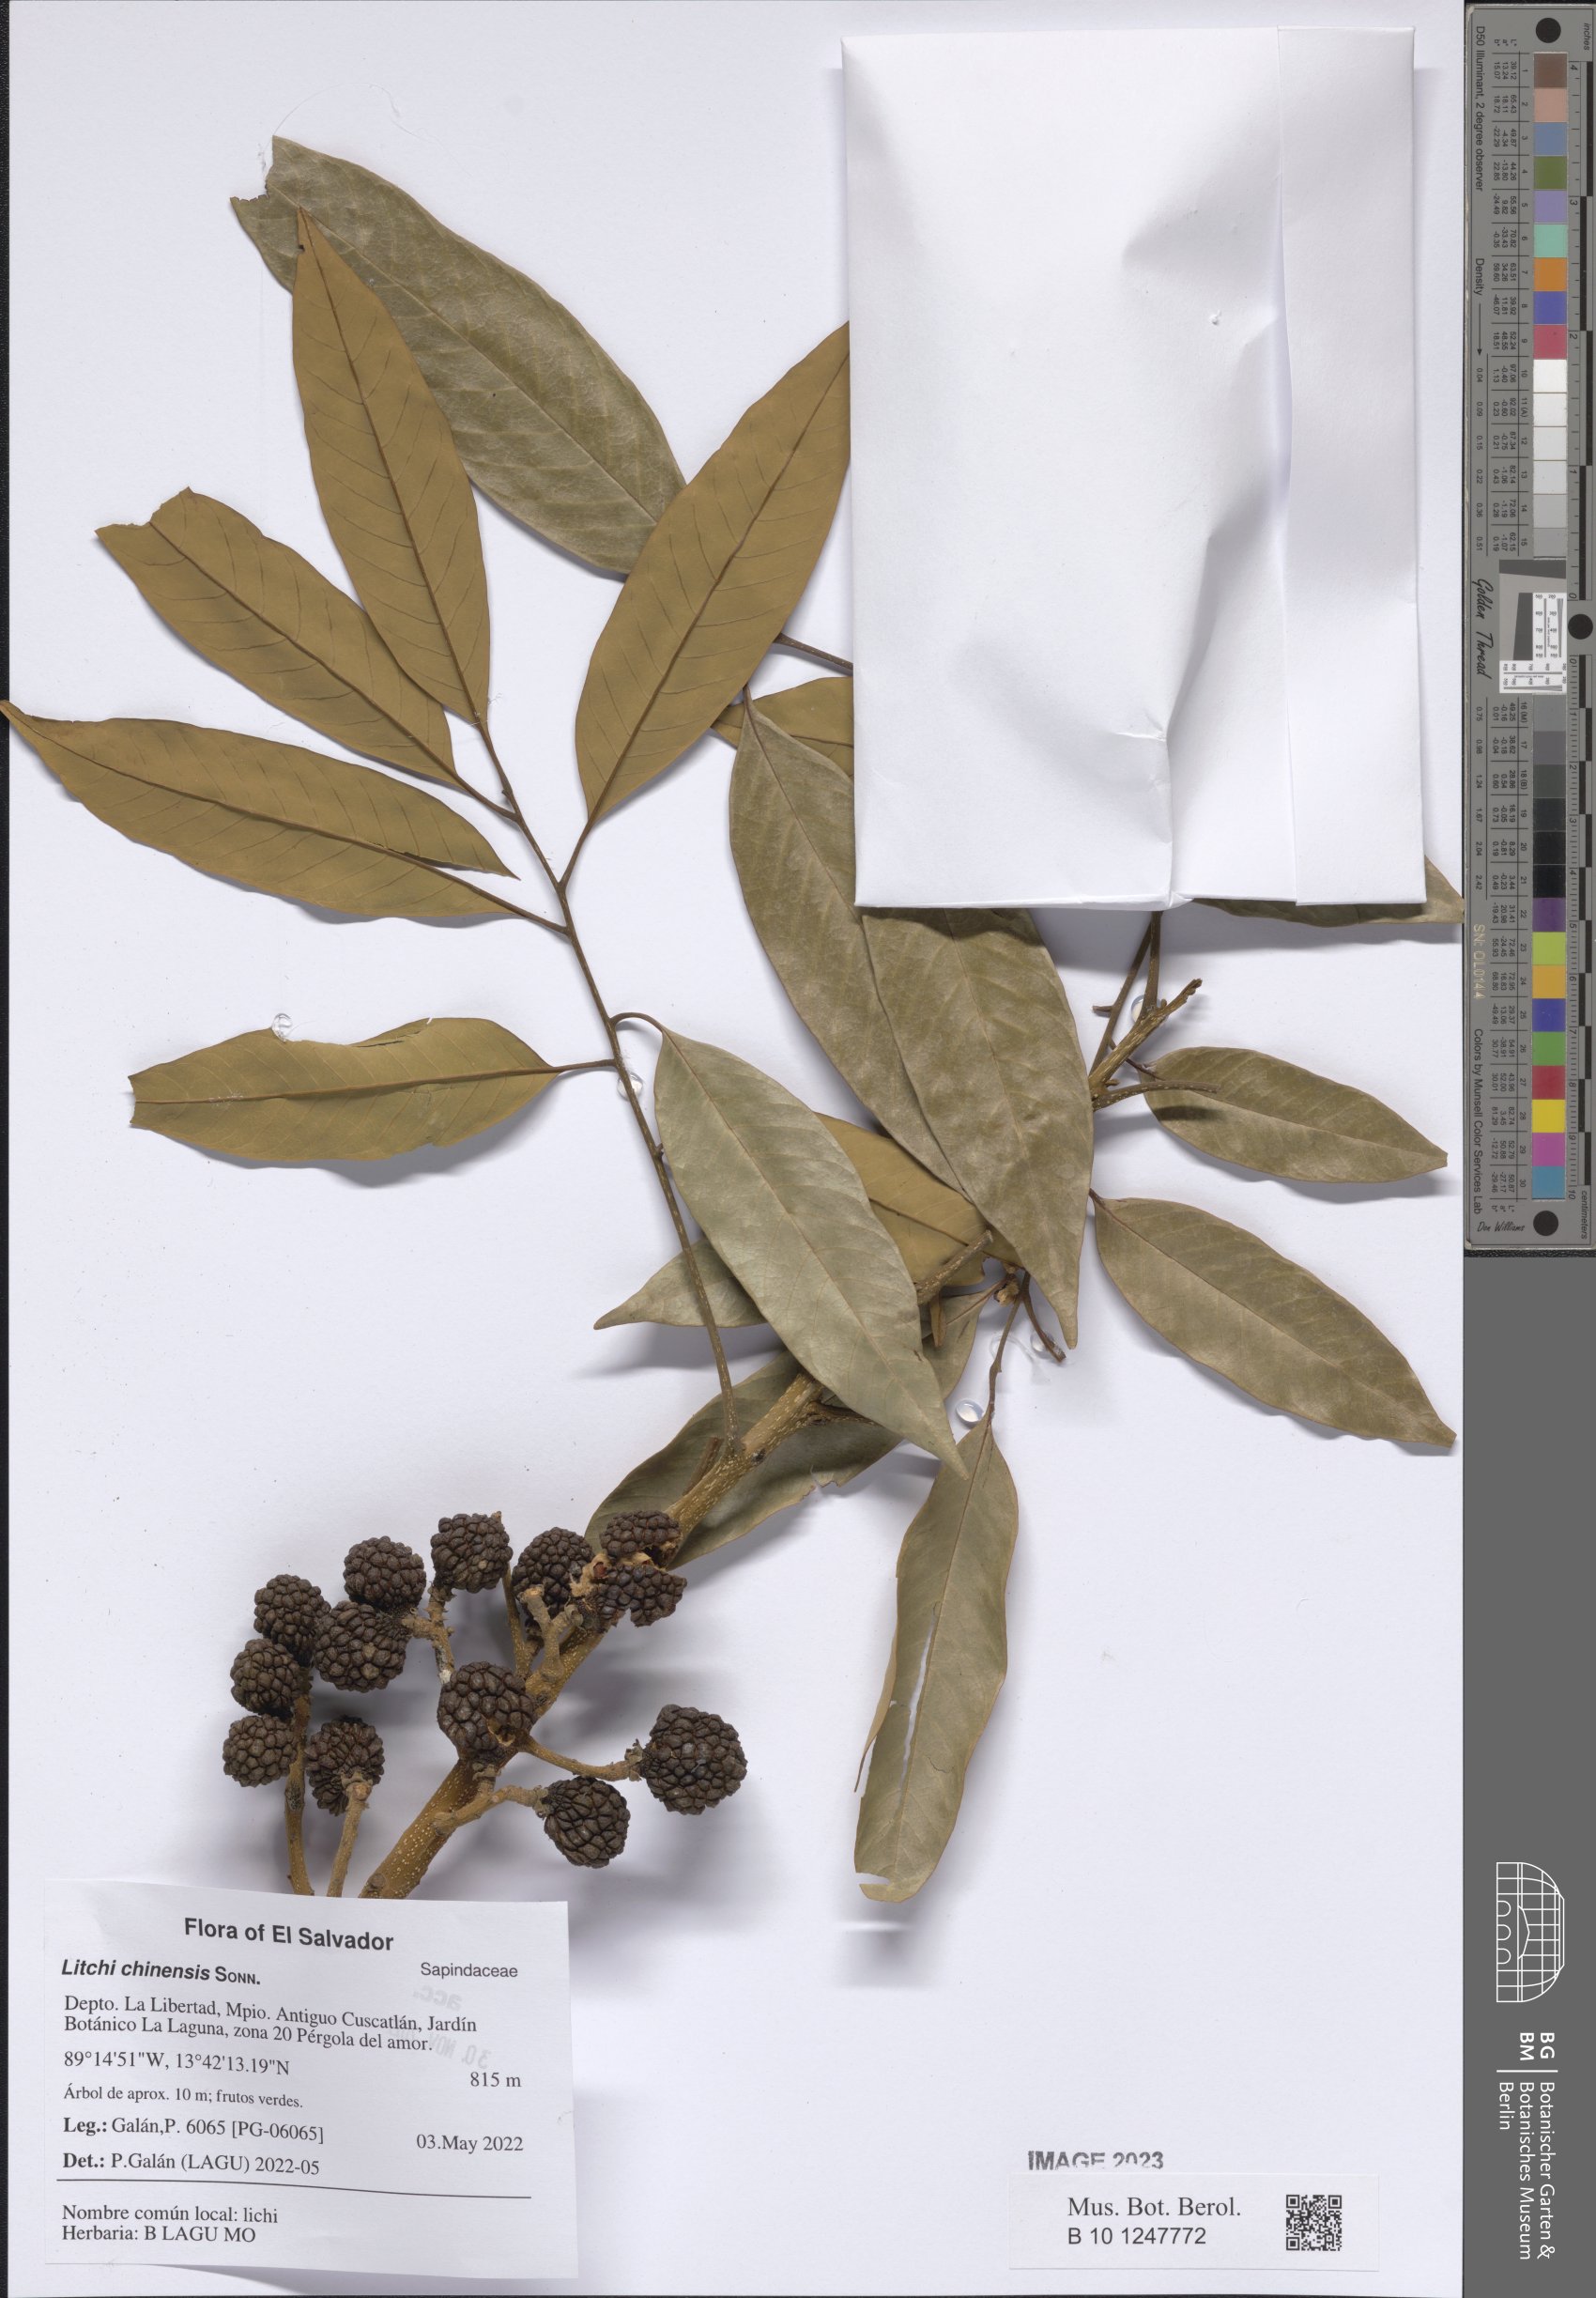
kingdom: Plantae
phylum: Tracheophyta
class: Magnoliopsida
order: Sapindales
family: Sapindaceae
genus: Litchi
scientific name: Litchi chinensis
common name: Litchi
